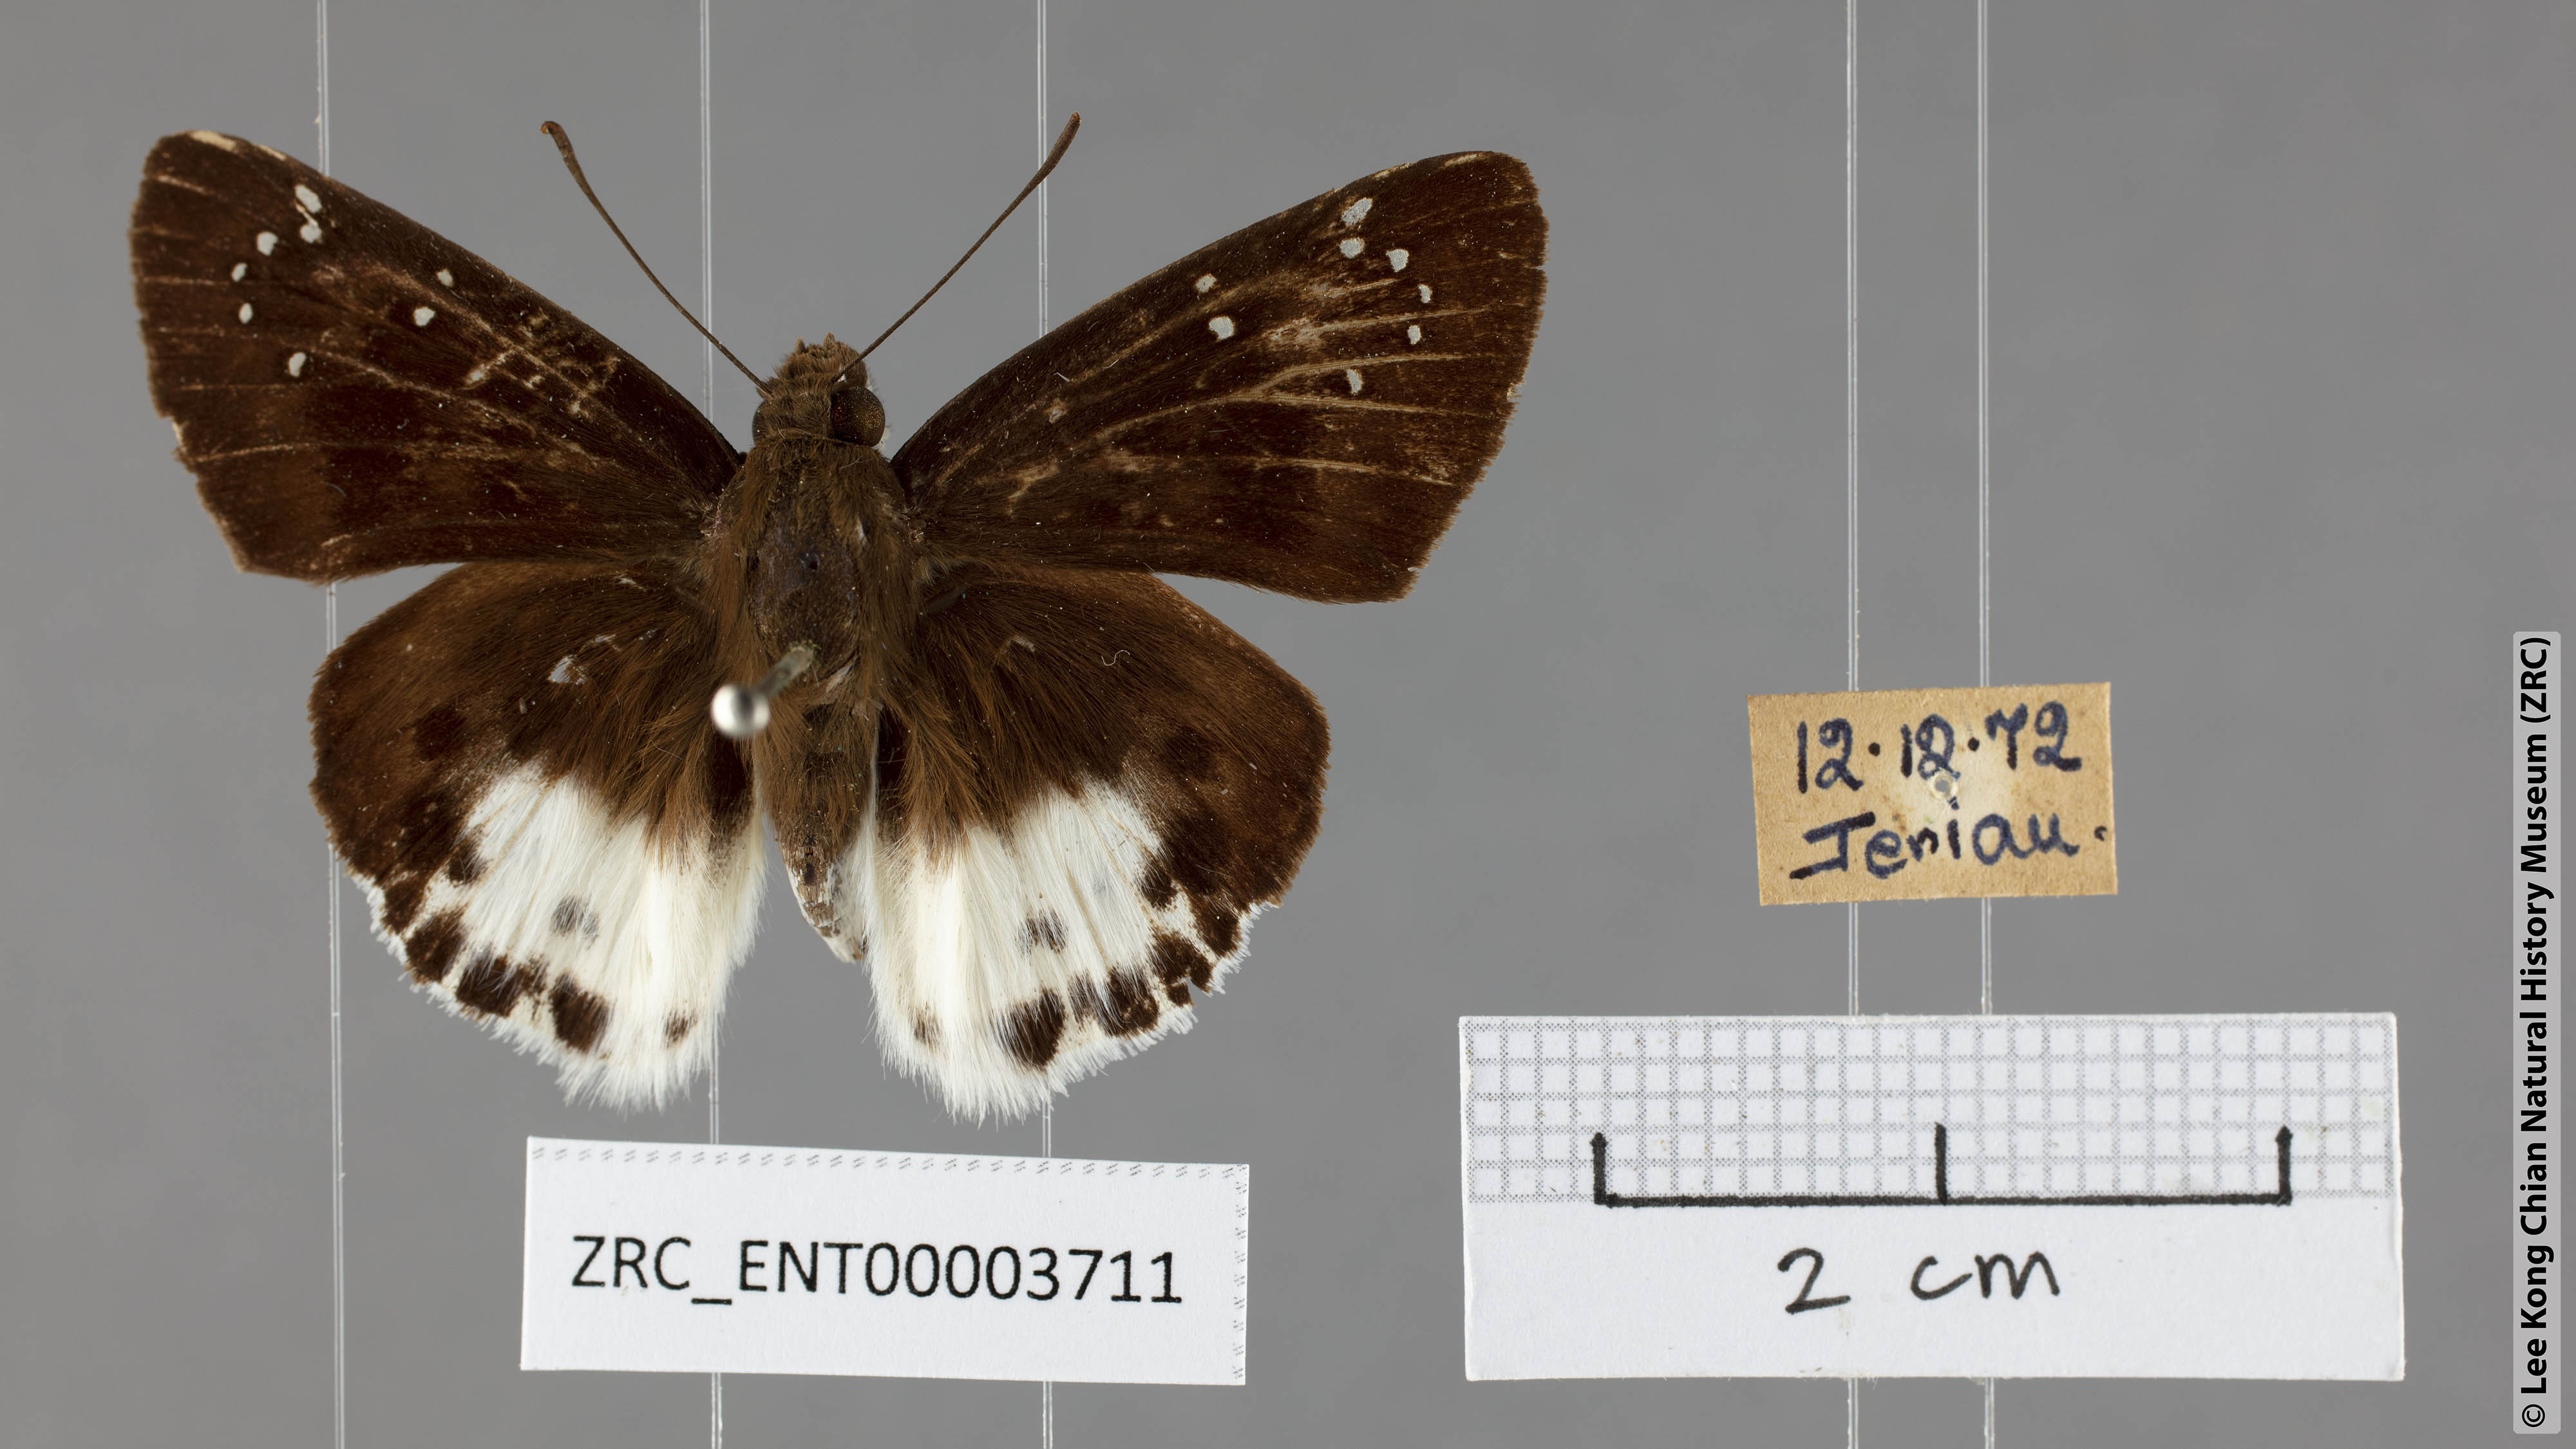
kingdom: Animalia
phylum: Arthropoda
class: Insecta
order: Lepidoptera
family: Hesperiidae
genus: Tagiades
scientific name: Tagiades menaka
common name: Dark-edged snow flat
